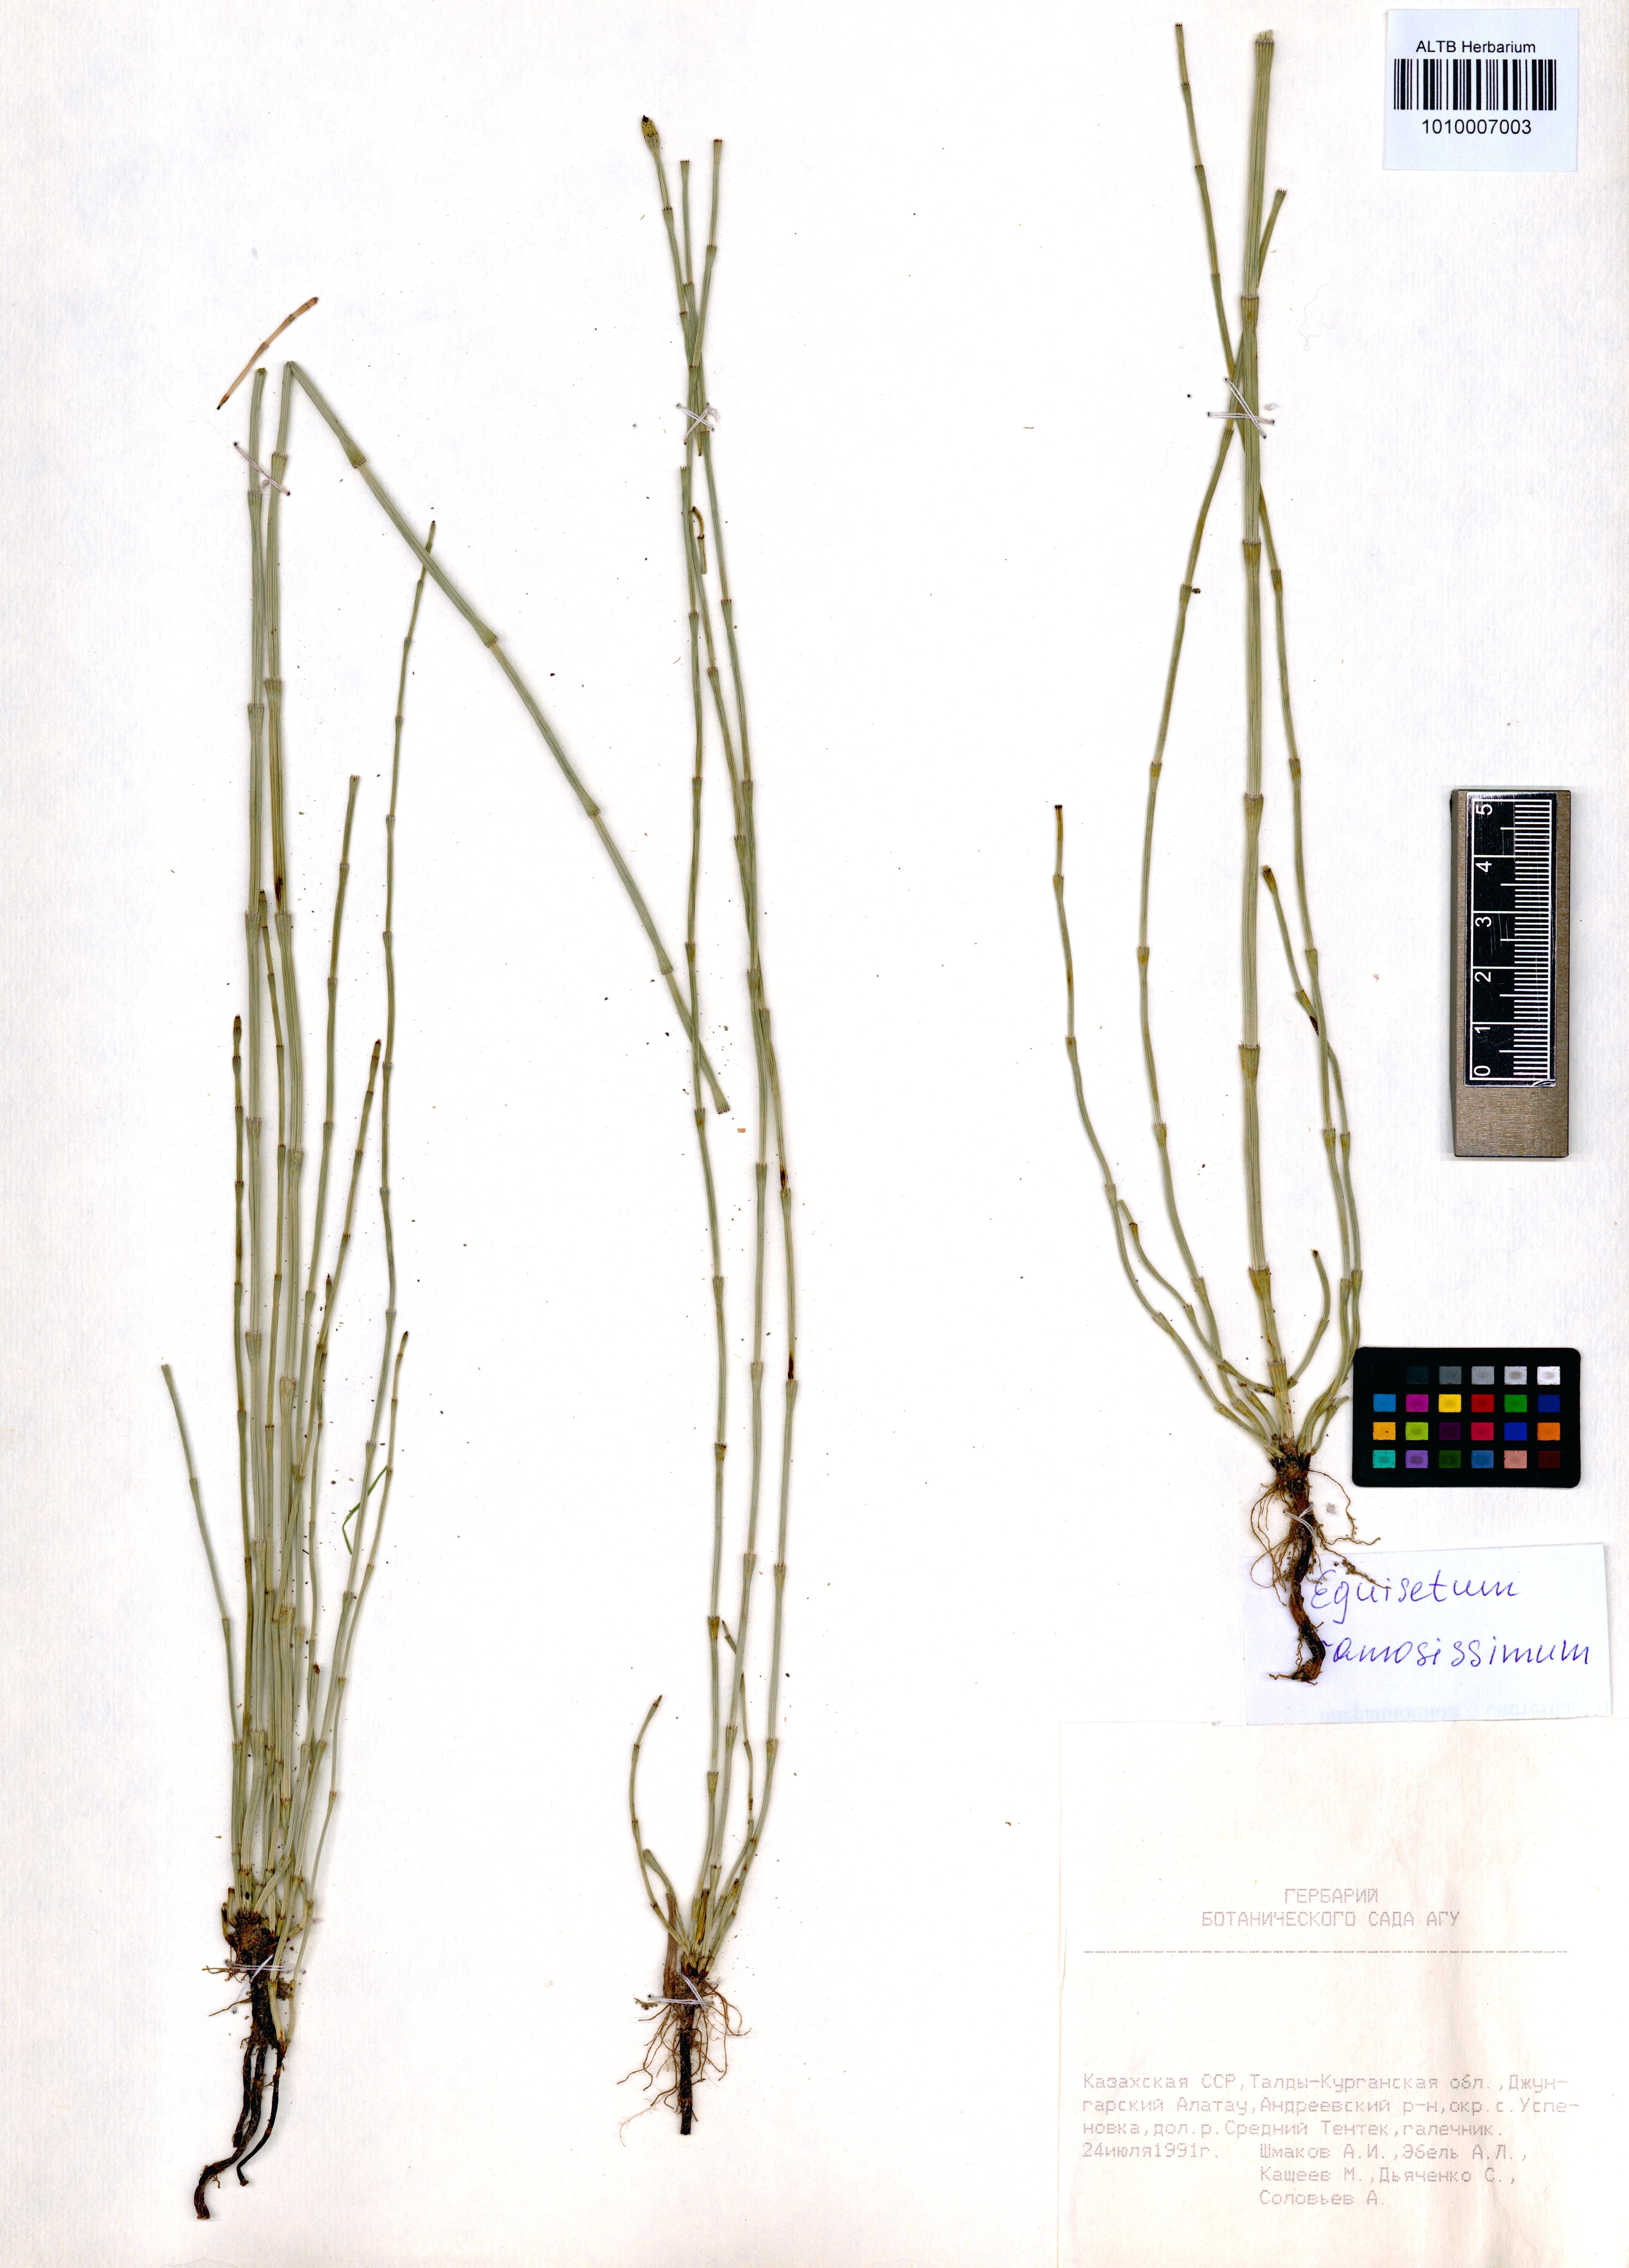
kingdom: Plantae
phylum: Tracheophyta
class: Polypodiopsida
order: Equisetales
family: Equisetaceae
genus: Equisetum
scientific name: Equisetum ramosissimum
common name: Branched horsetail
